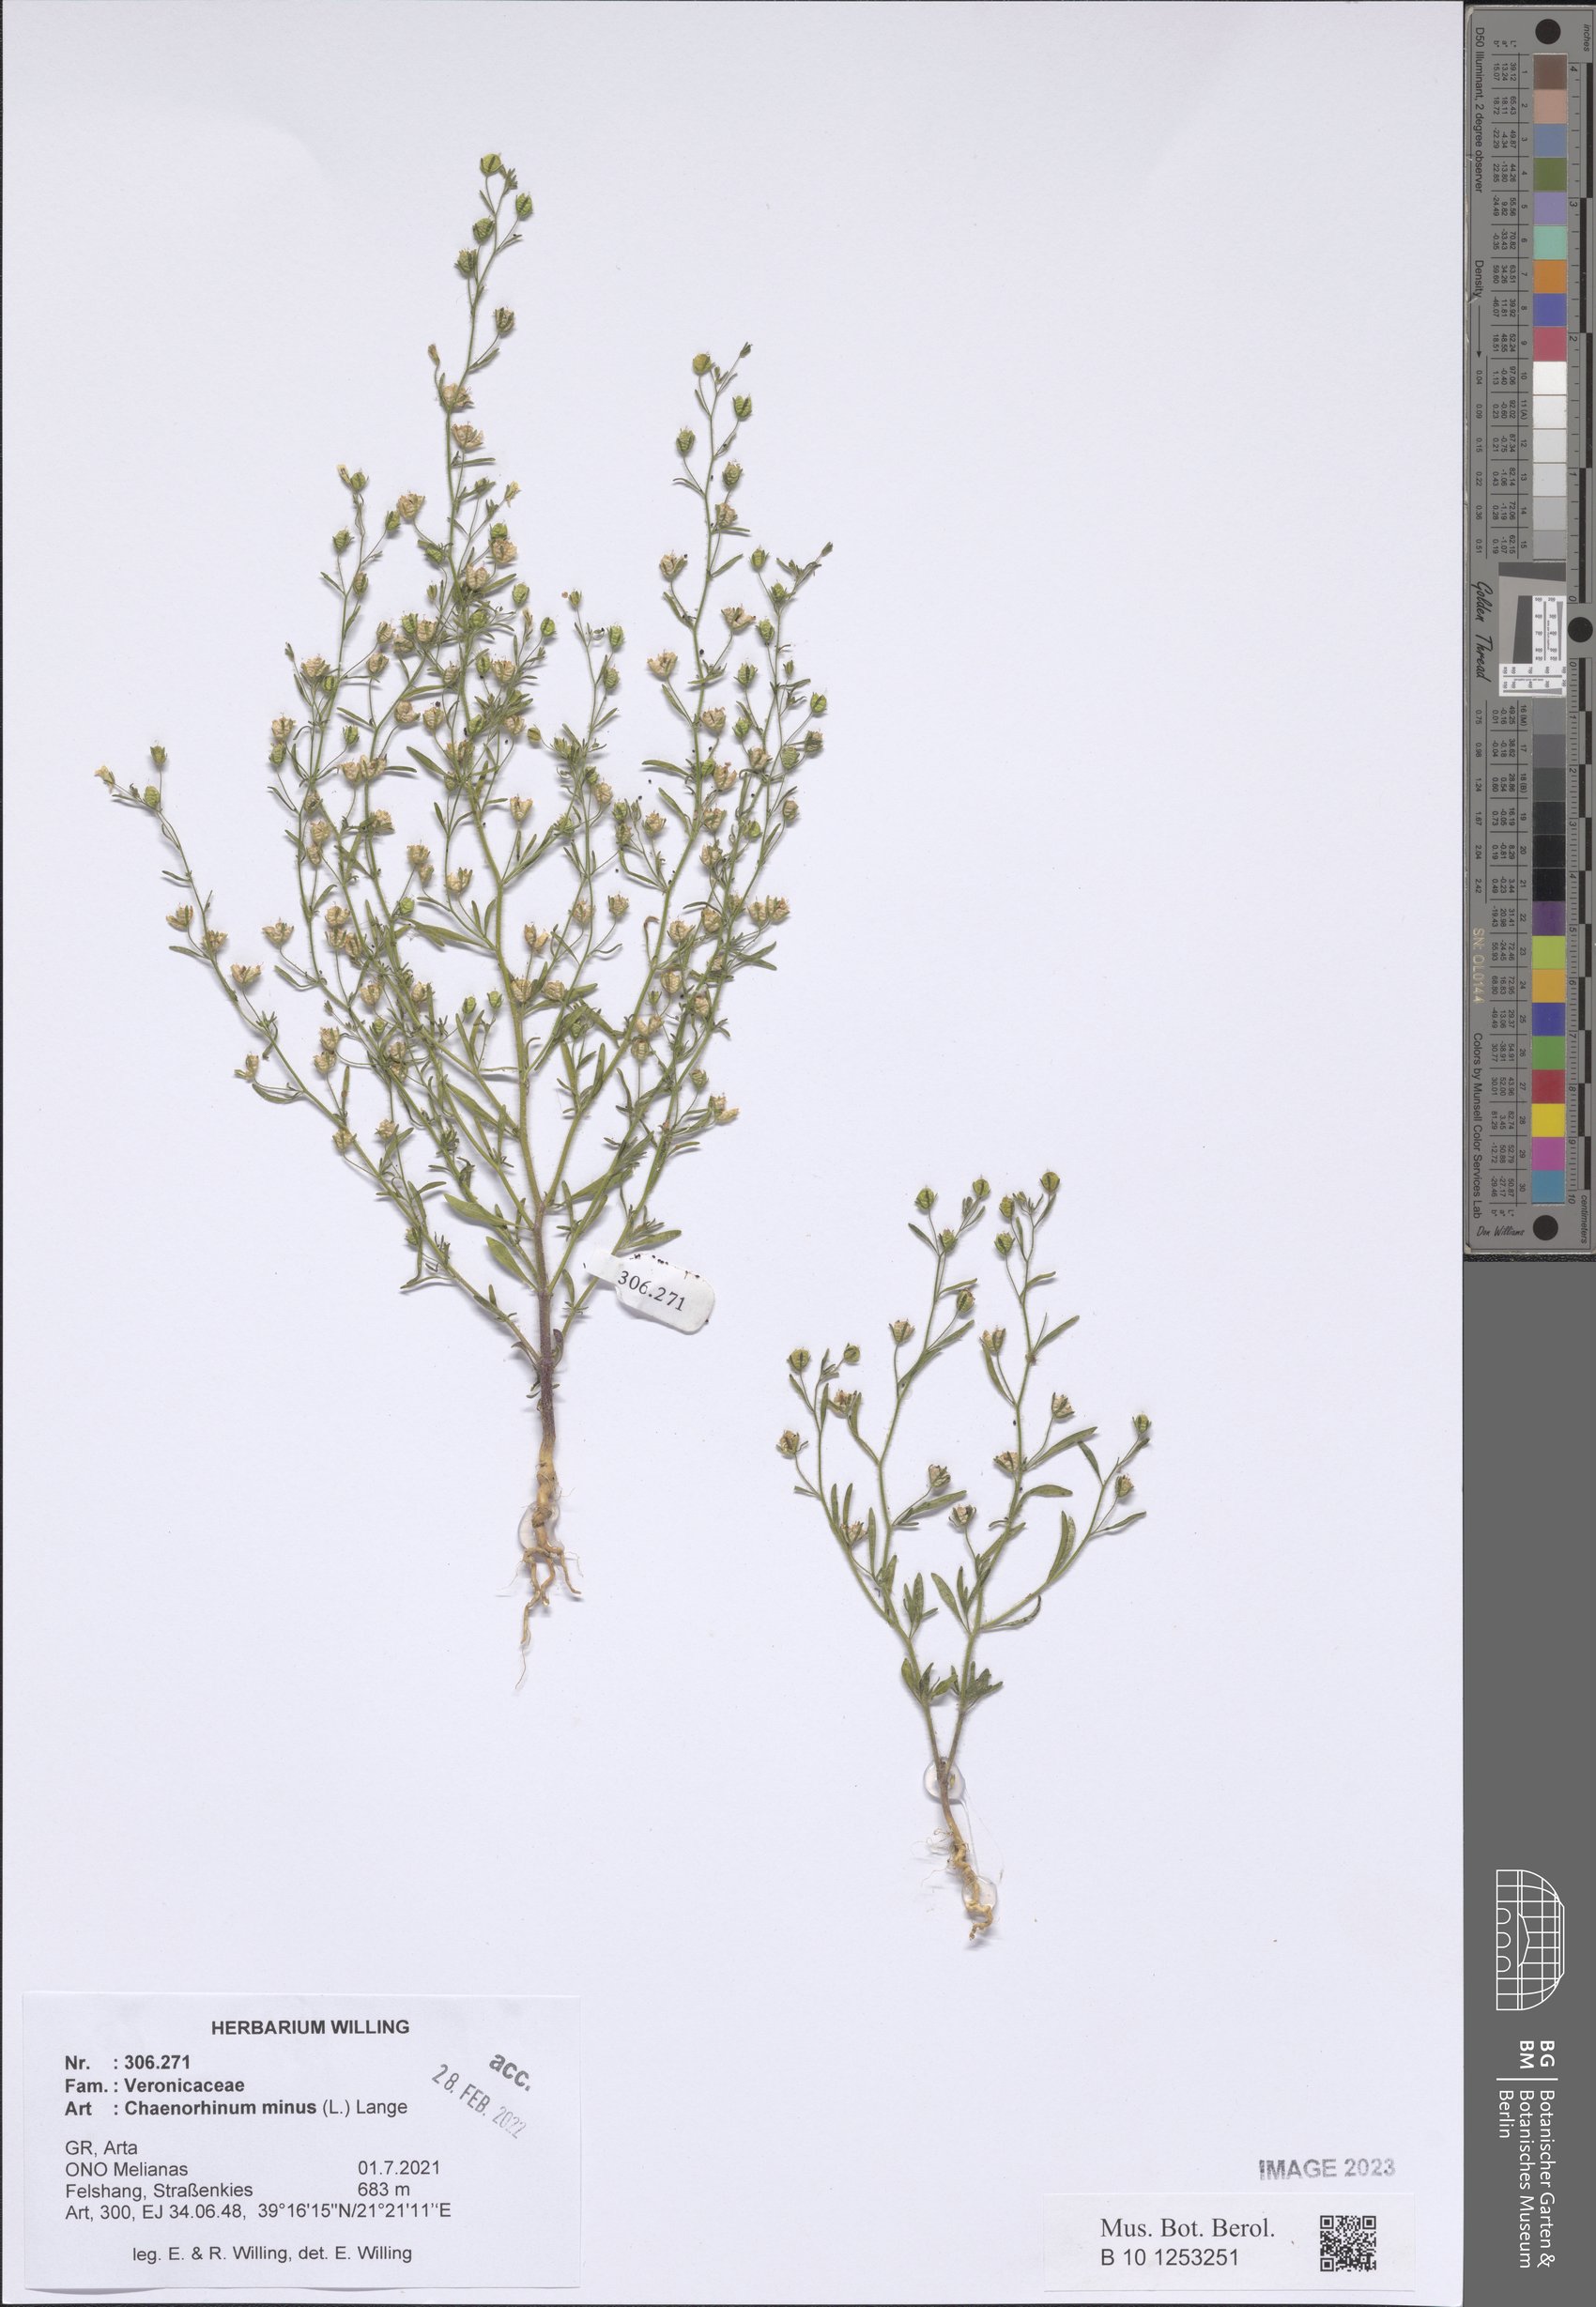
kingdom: Plantae
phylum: Tracheophyta
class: Magnoliopsida
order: Lamiales
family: Plantaginaceae
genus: Chaenorhinum
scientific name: Chaenorhinum minus
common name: Dwarf snapdragon
